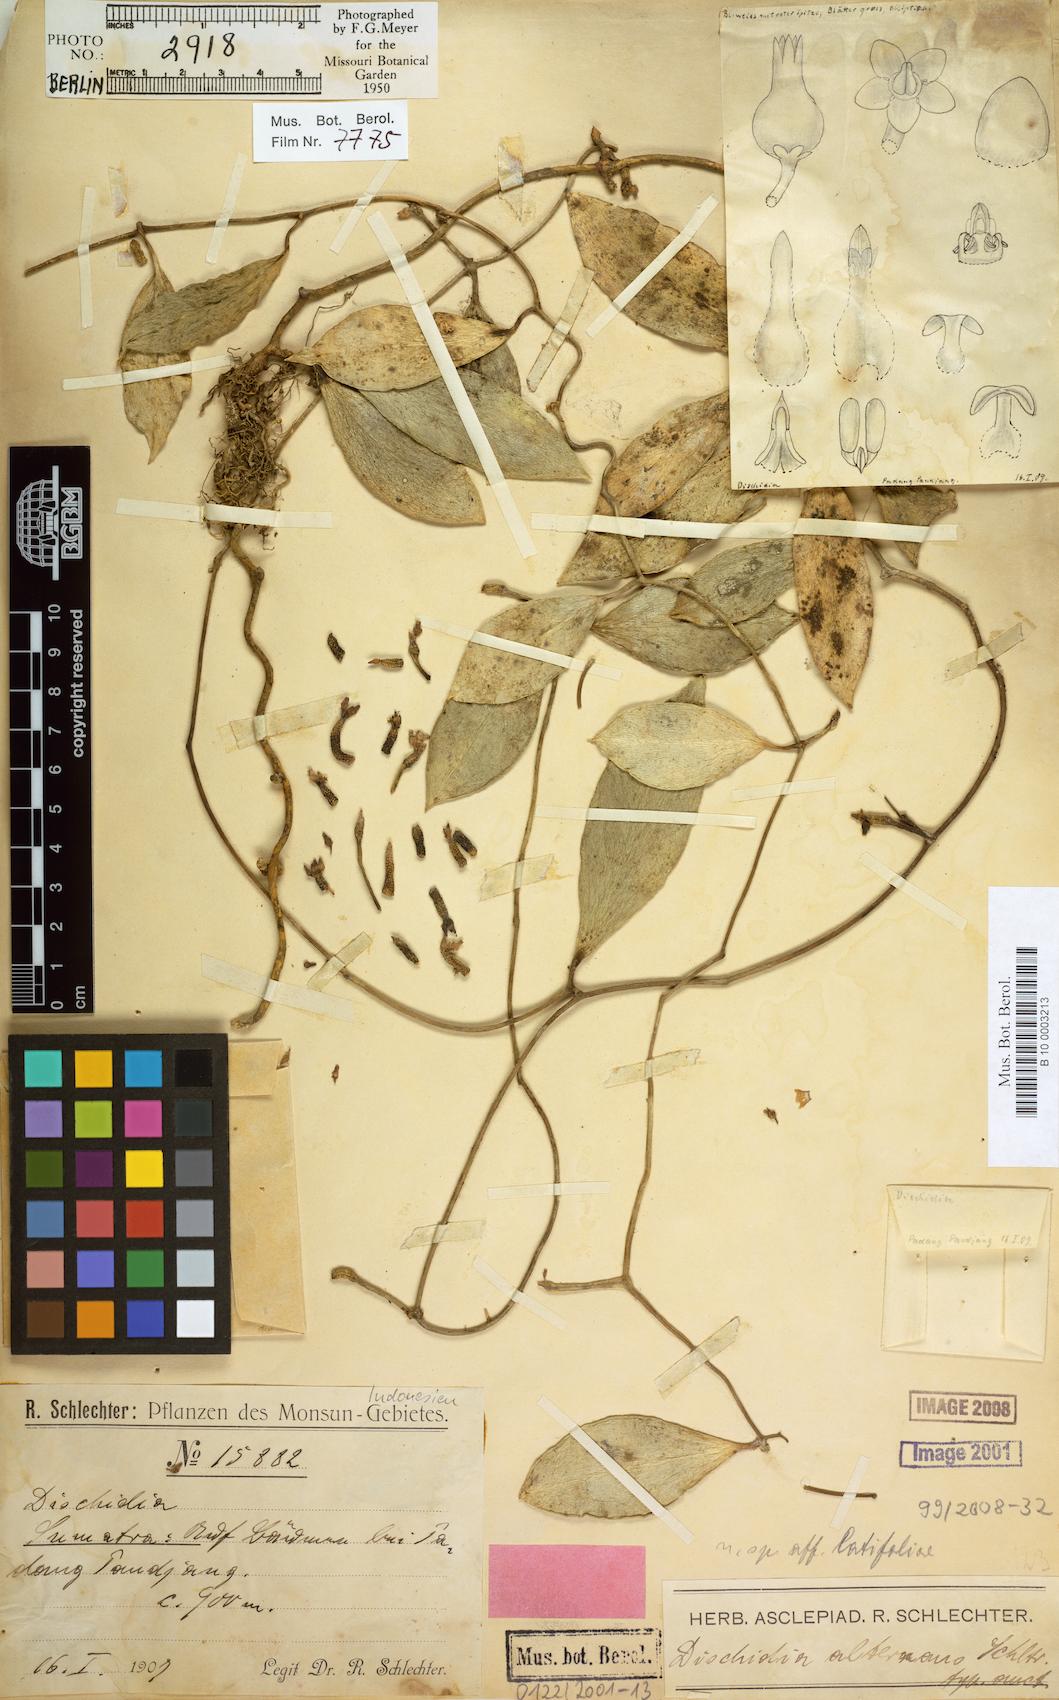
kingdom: Plantae
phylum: Tracheophyta
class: Magnoliopsida
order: Gentianales
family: Apocynaceae
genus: Dischidia
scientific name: Dischidia alternans
